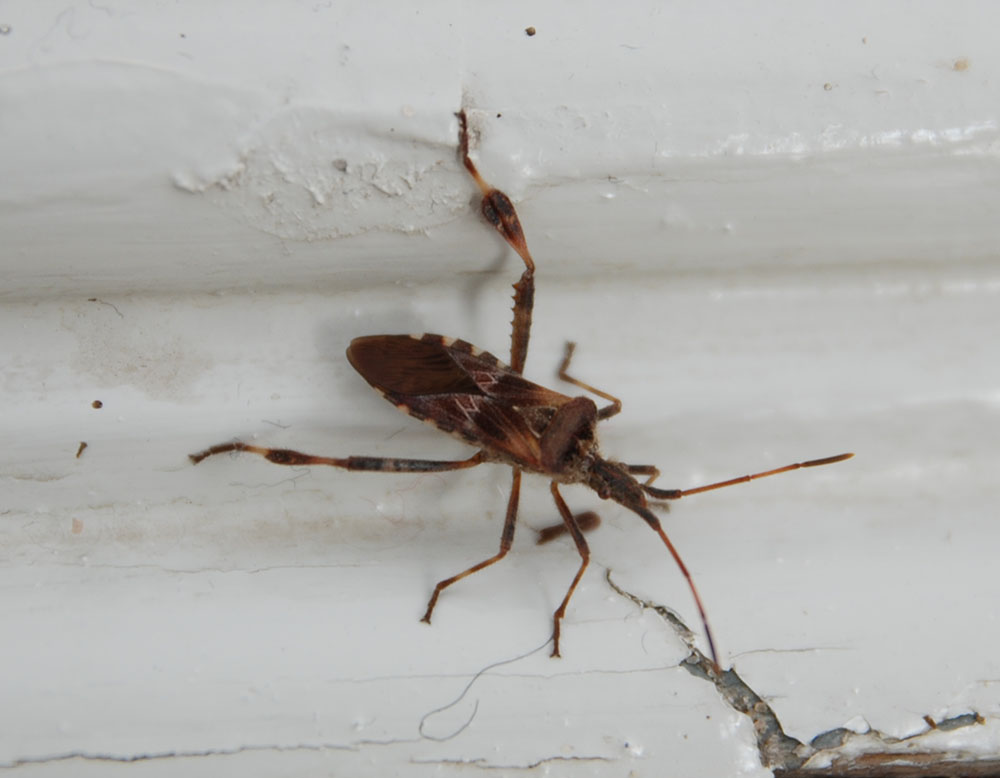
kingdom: Animalia
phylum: Arthropoda
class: Insecta
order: Hemiptera
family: Coreidae
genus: Leptoglossus
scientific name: Leptoglossus occidentalis
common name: Western conifer-seed bug
